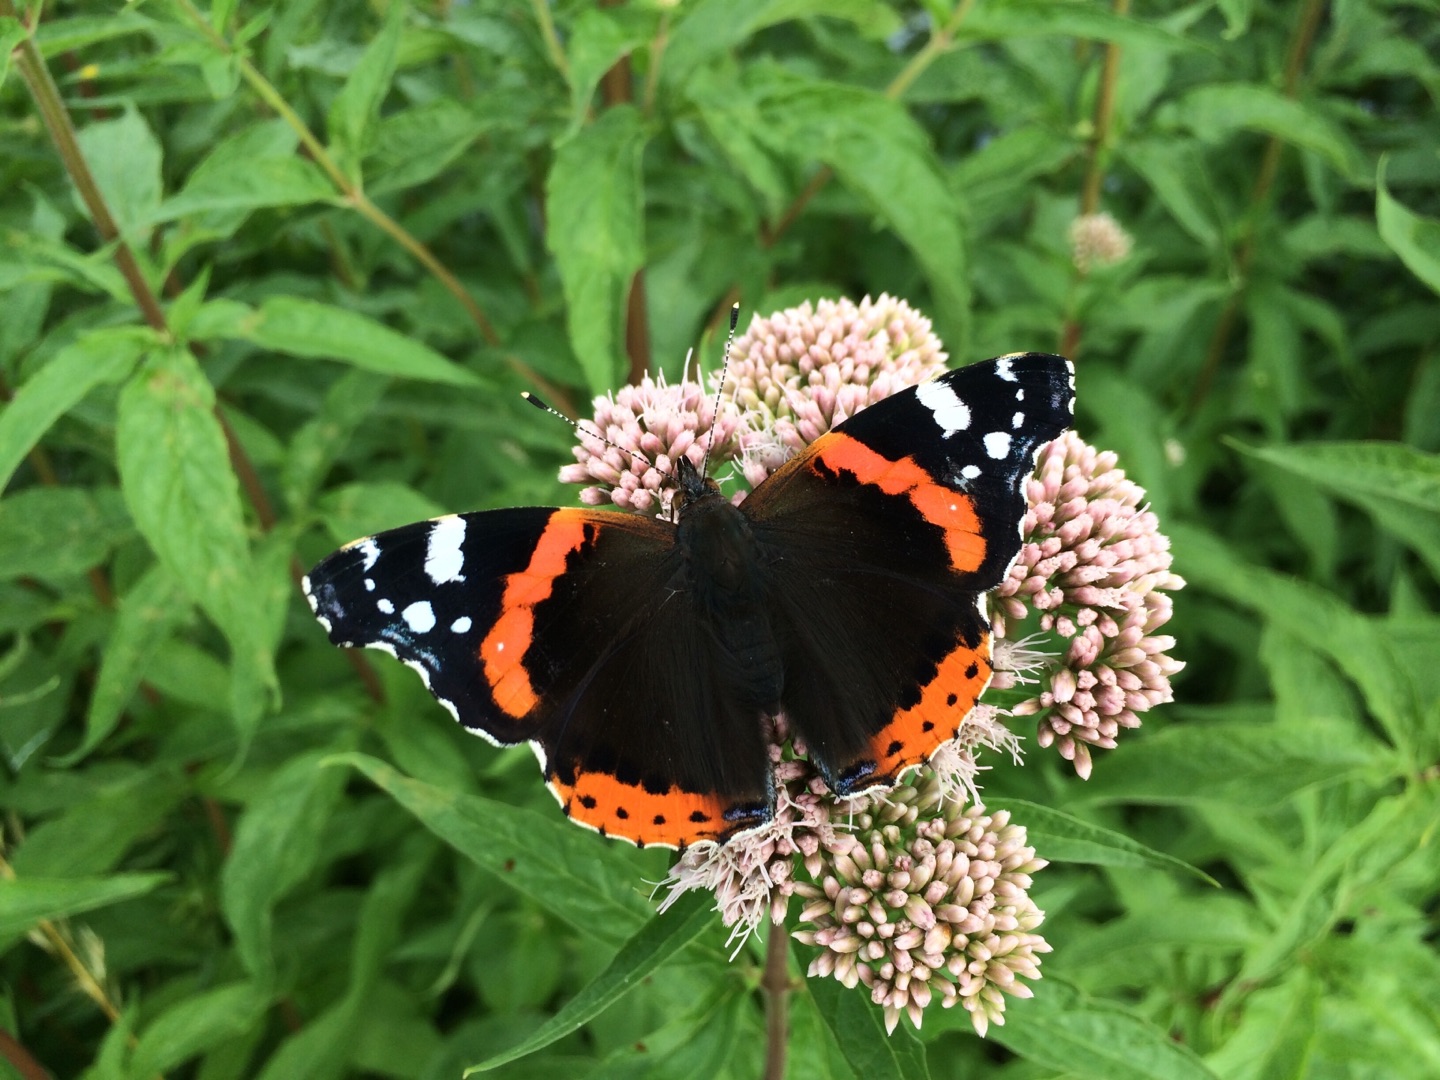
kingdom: Animalia
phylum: Arthropoda
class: Insecta
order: Lepidoptera
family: Nymphalidae
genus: Vanessa
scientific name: Vanessa atalanta
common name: Admiral
